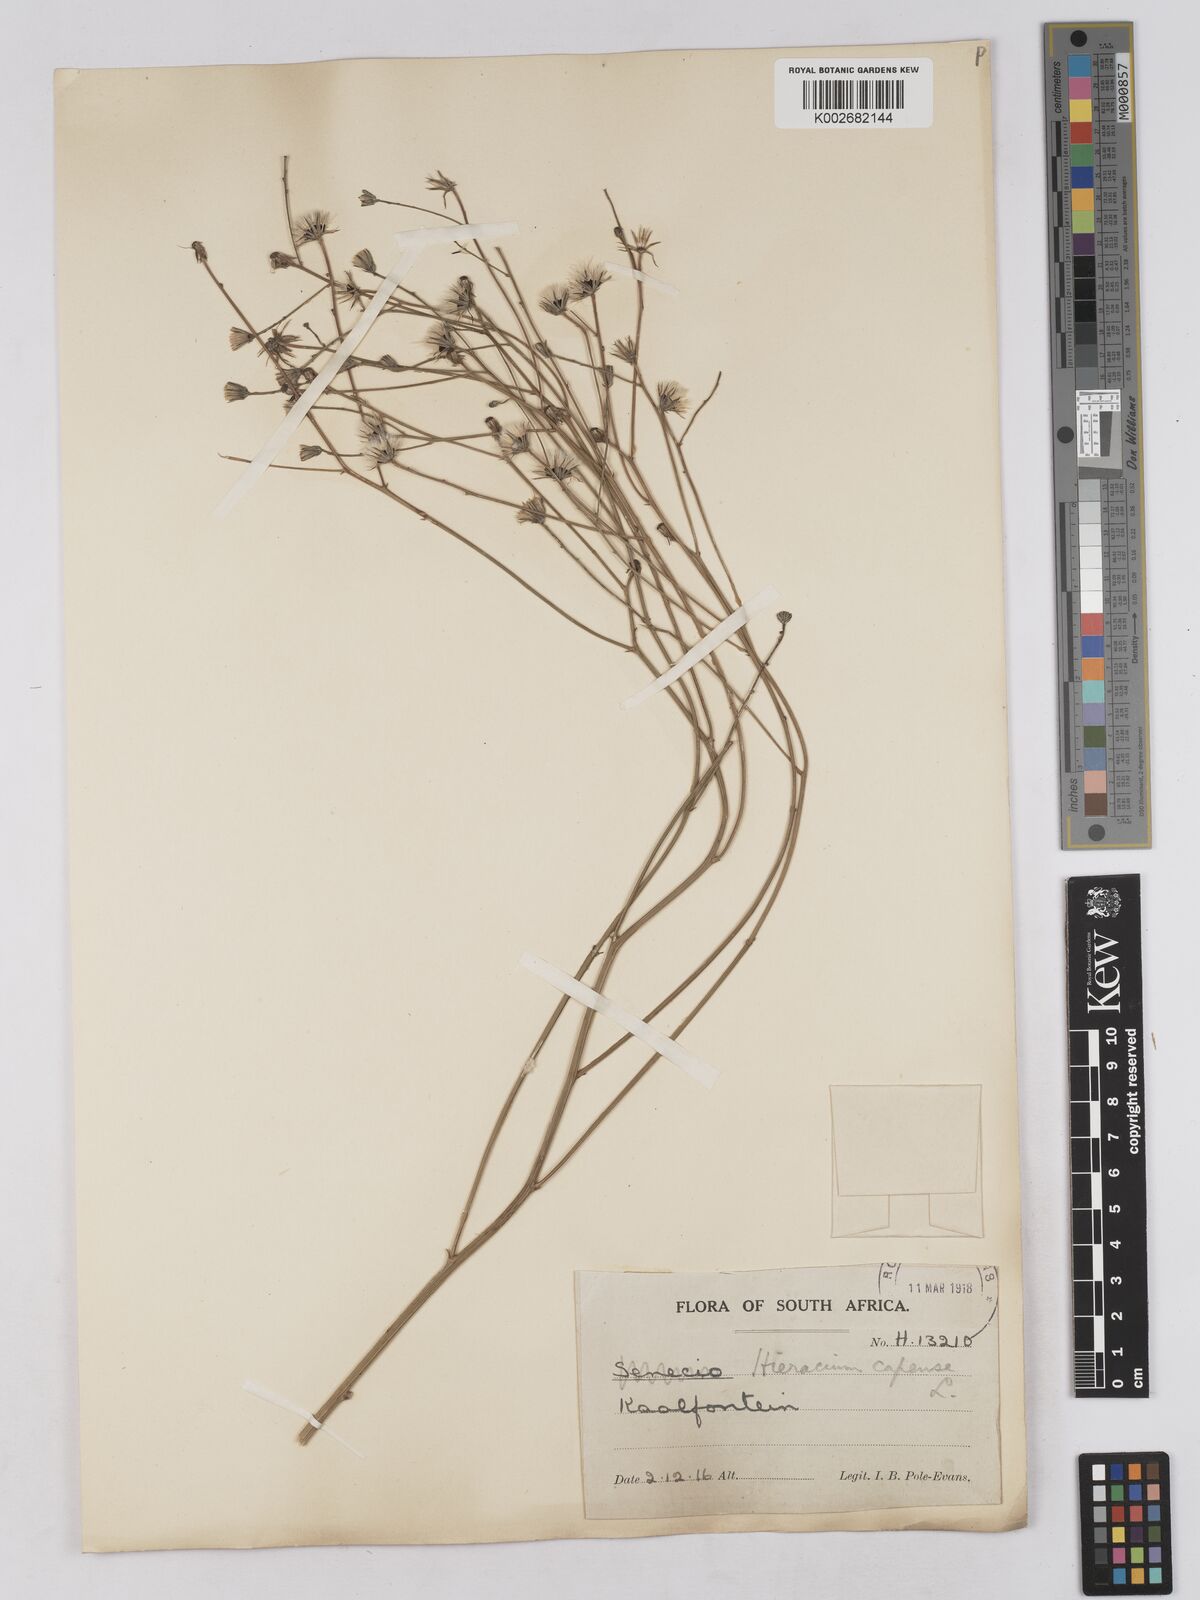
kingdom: Plantae
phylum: Tracheophyta
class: Magnoliopsida
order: Asterales
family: Asteraceae
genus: Tolpis
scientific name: Tolpis capensis
